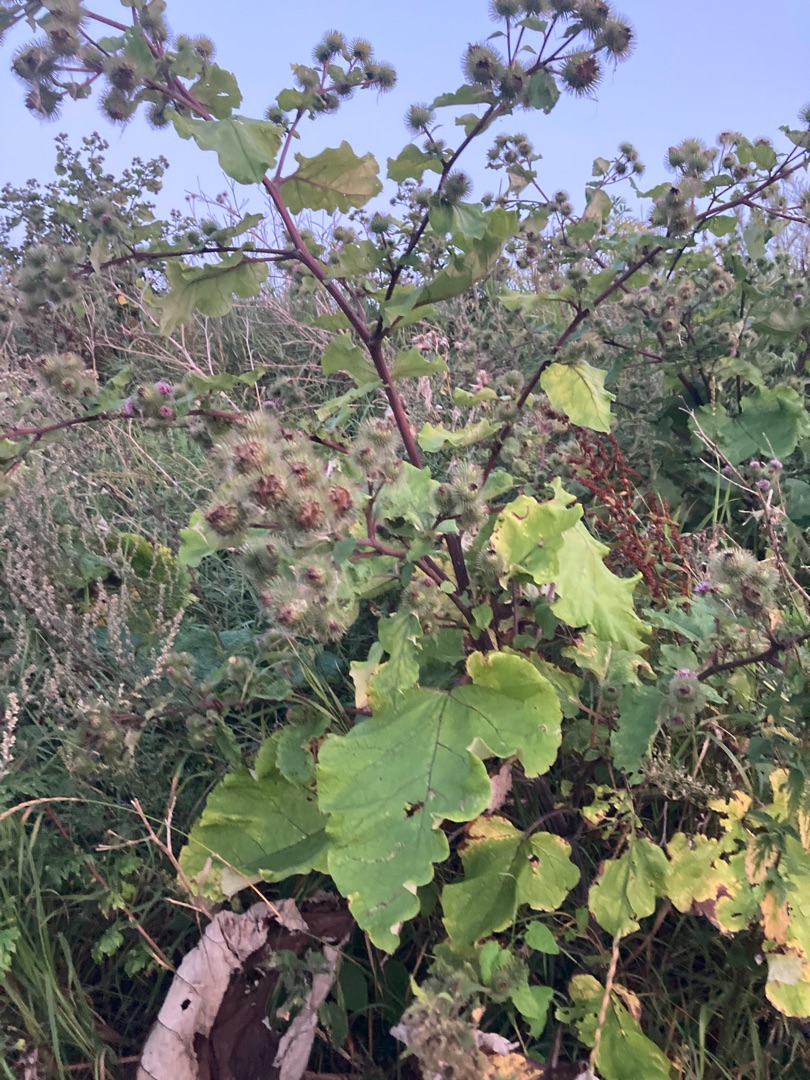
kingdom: Plantae
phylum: Tracheophyta
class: Magnoliopsida
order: Asterales
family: Asteraceae
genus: Arctium
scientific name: Arctium lappa
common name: Glat burre
